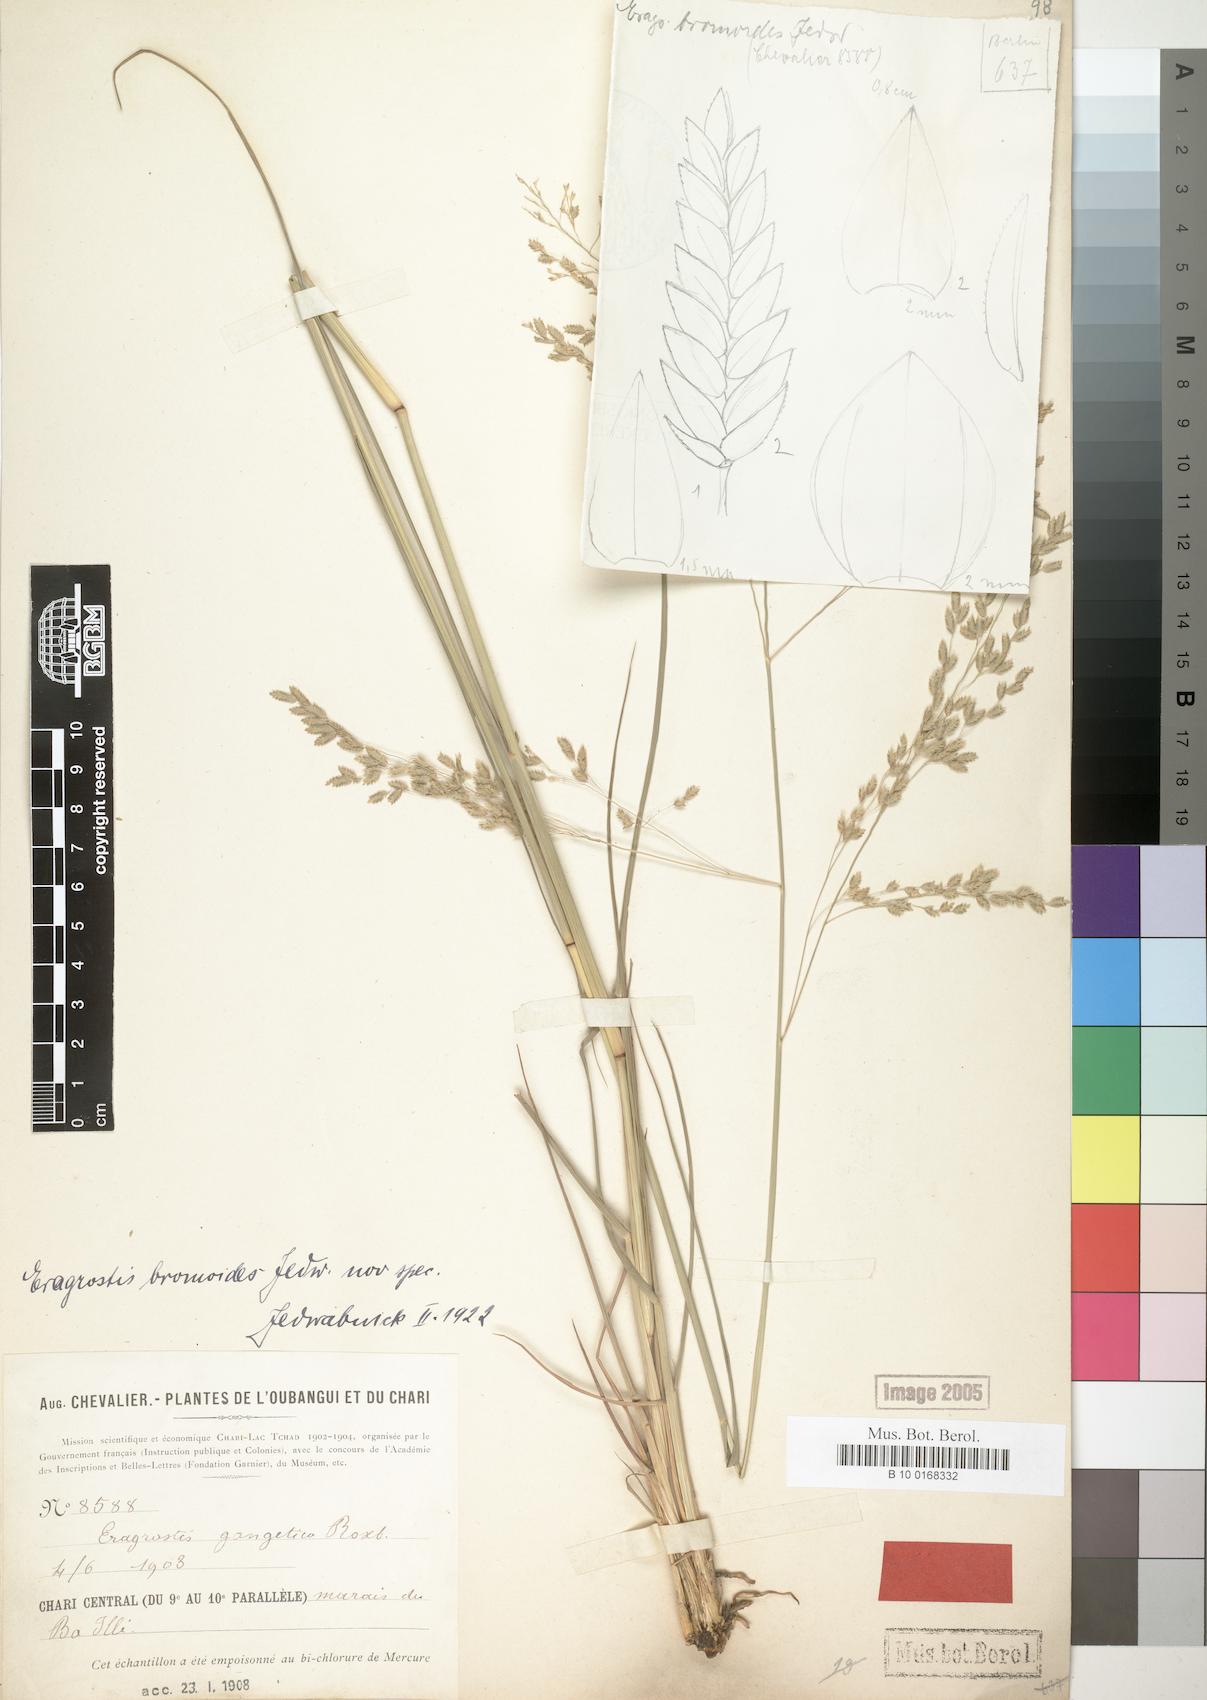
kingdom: Plantae
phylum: Tracheophyta
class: Liliopsida
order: Poales
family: Poaceae
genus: Eragrostis
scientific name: Eragrostis atrovirens
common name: Thalia lovegrass
